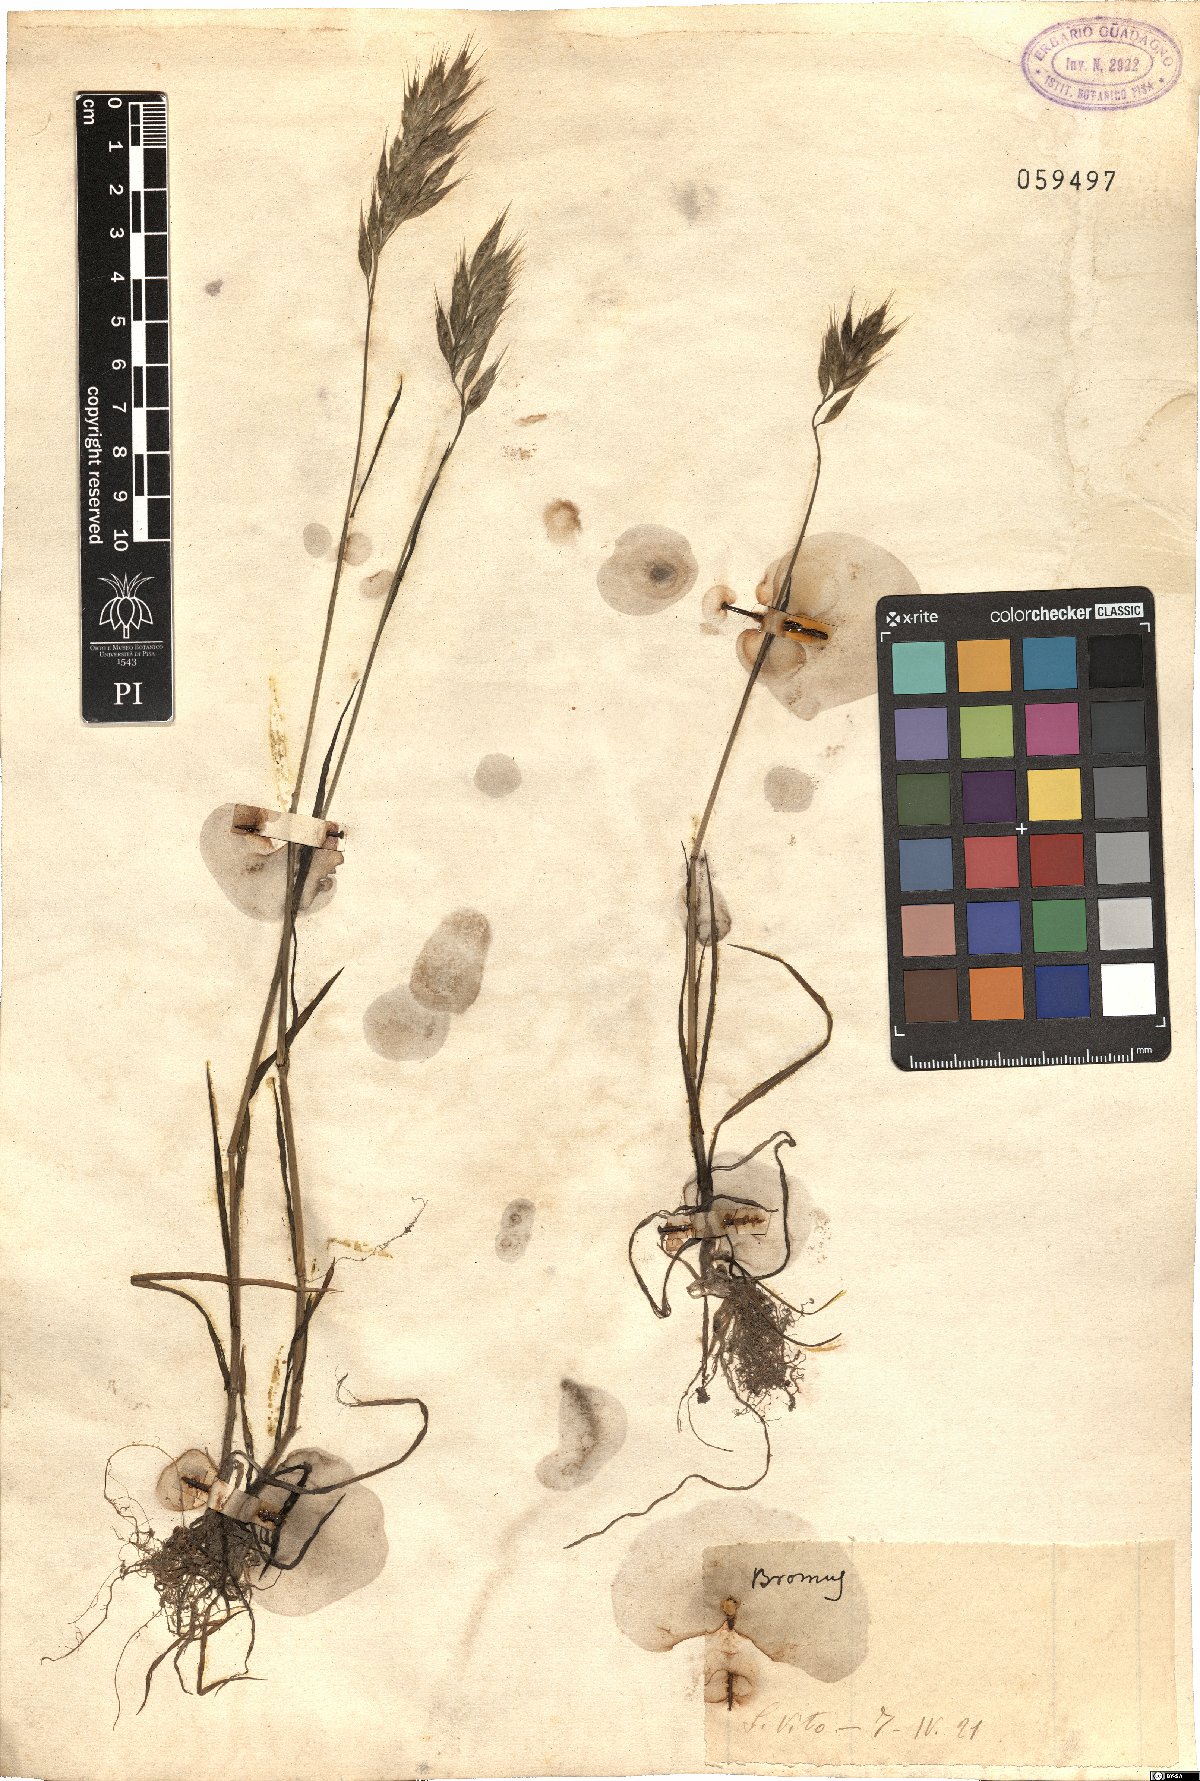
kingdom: Plantae
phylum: Tracheophyta
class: Liliopsida
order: Poales
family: Poaceae
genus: Bromus
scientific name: Bromus
